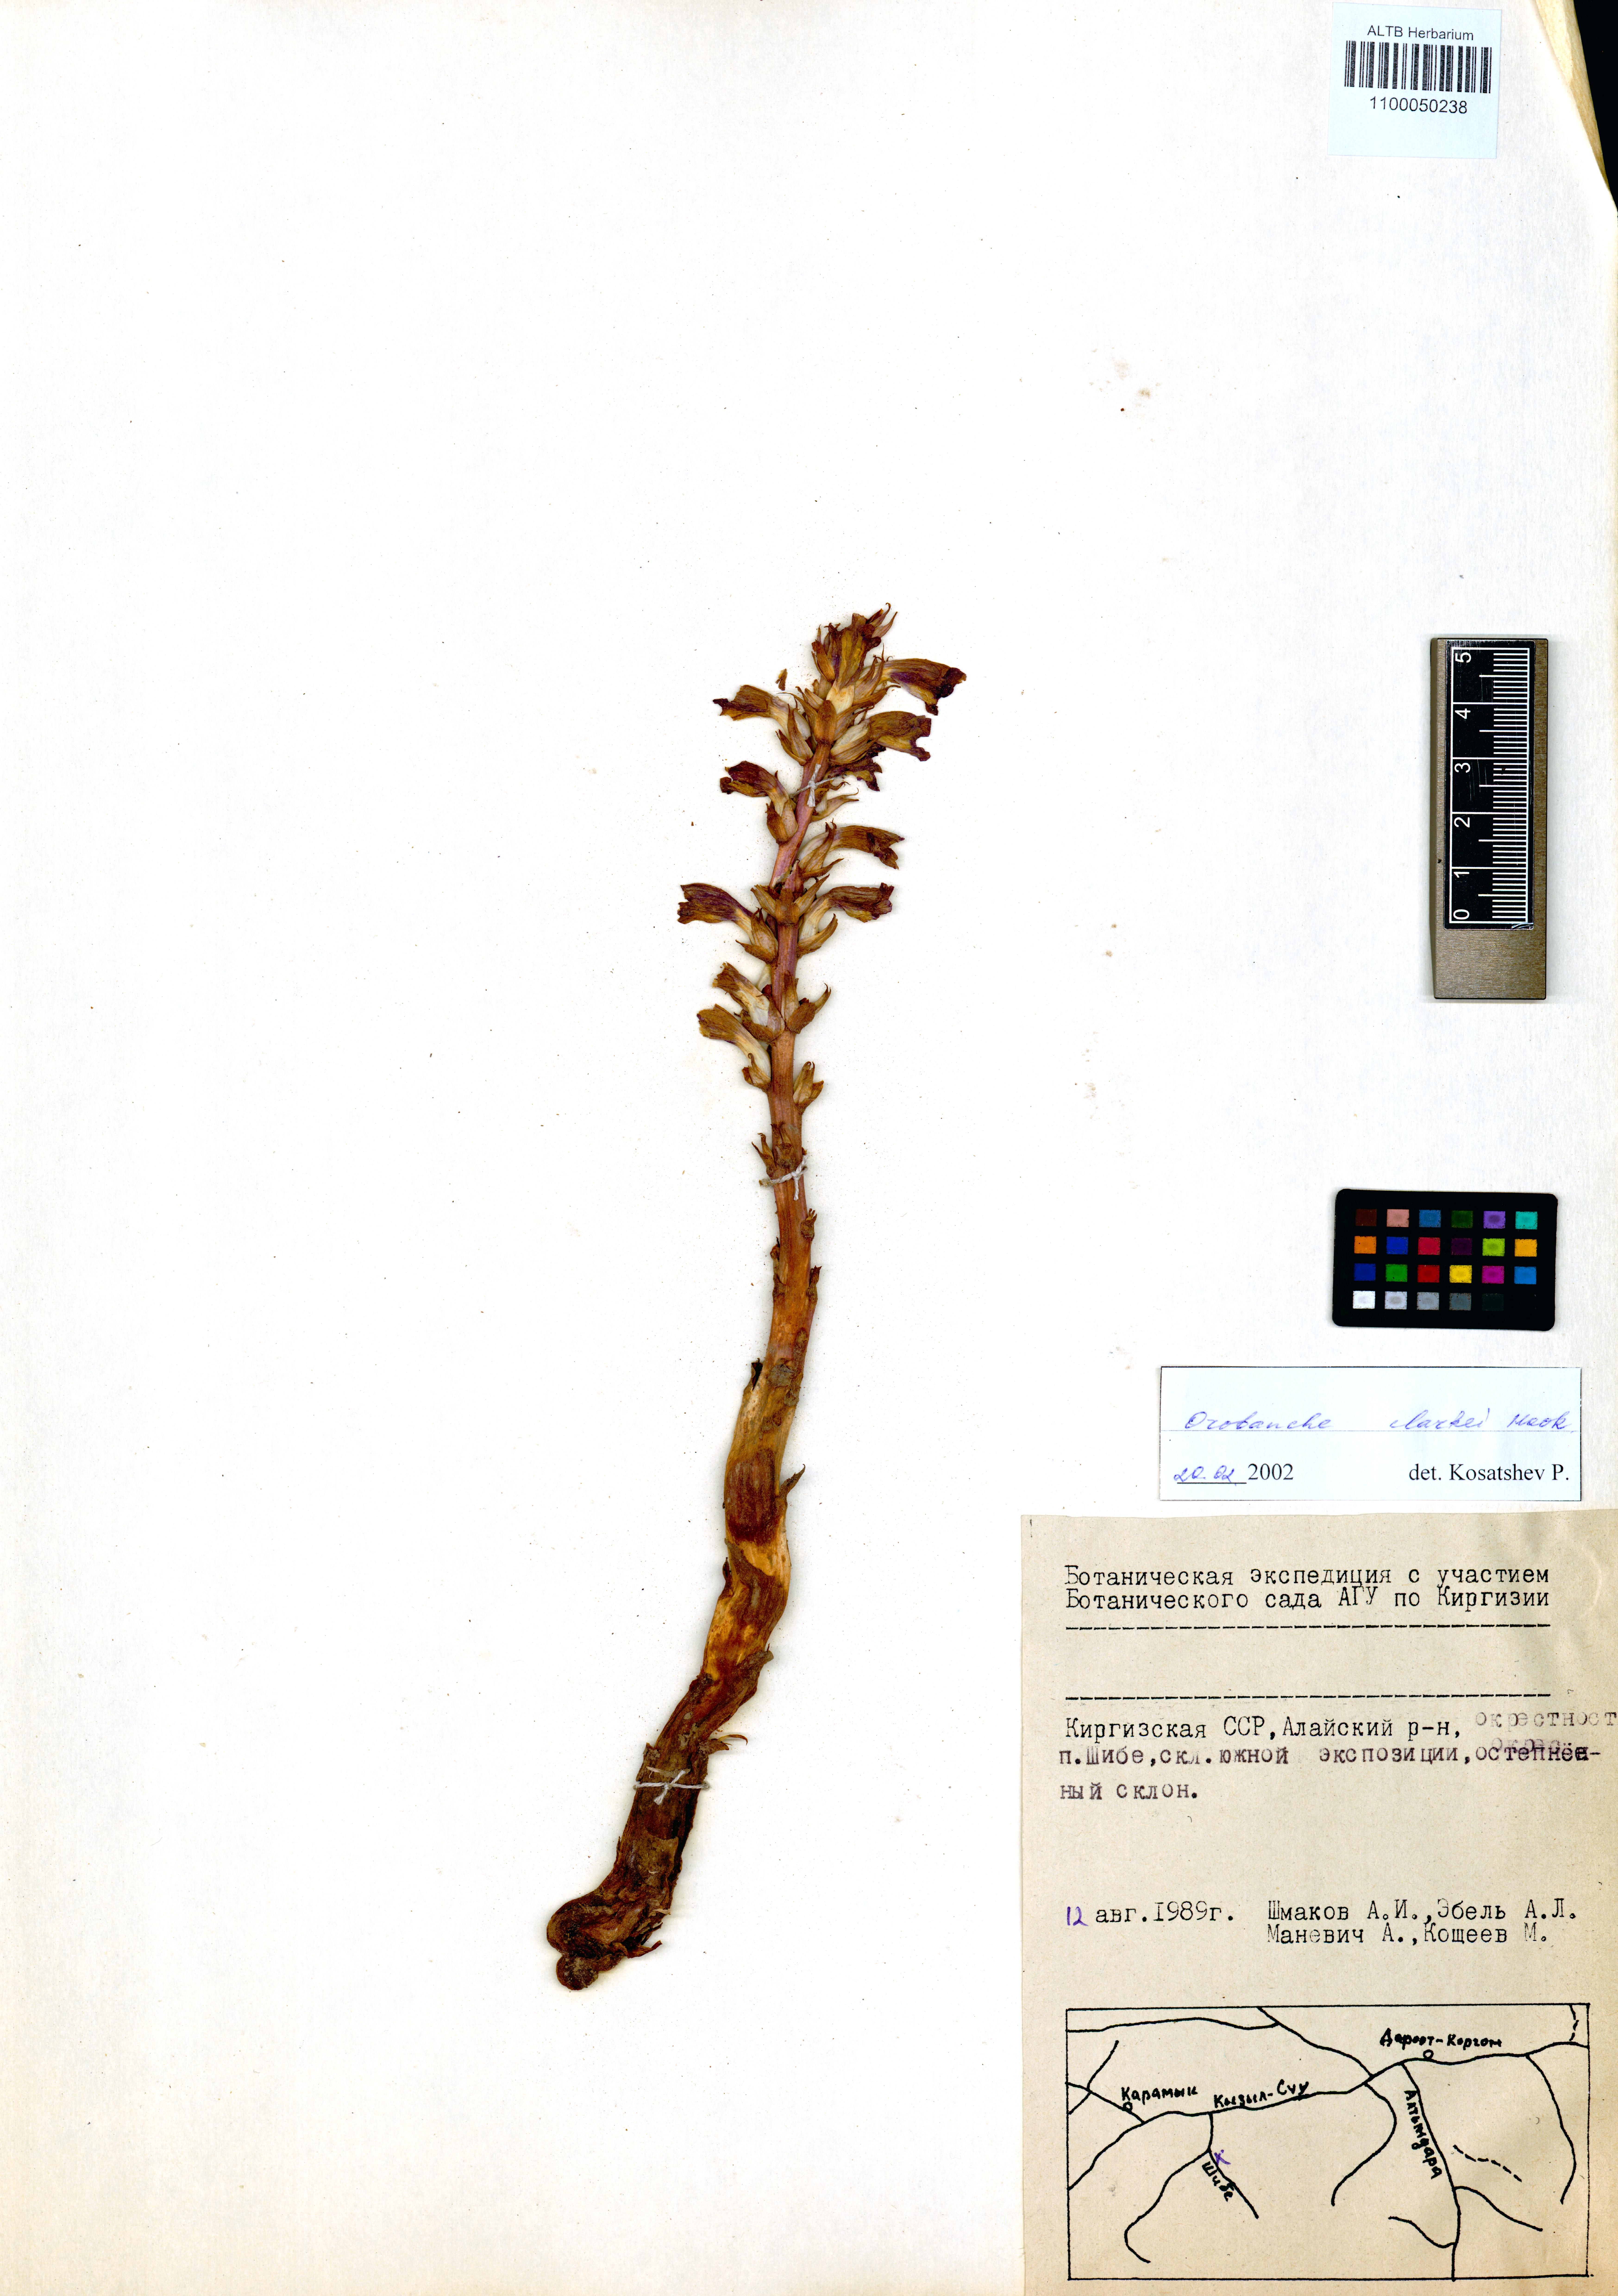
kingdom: Plantae
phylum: Tracheophyta
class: Magnoliopsida
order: Lamiales
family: Orobanchaceae
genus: Orobanche
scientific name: Orobanche clarkei
